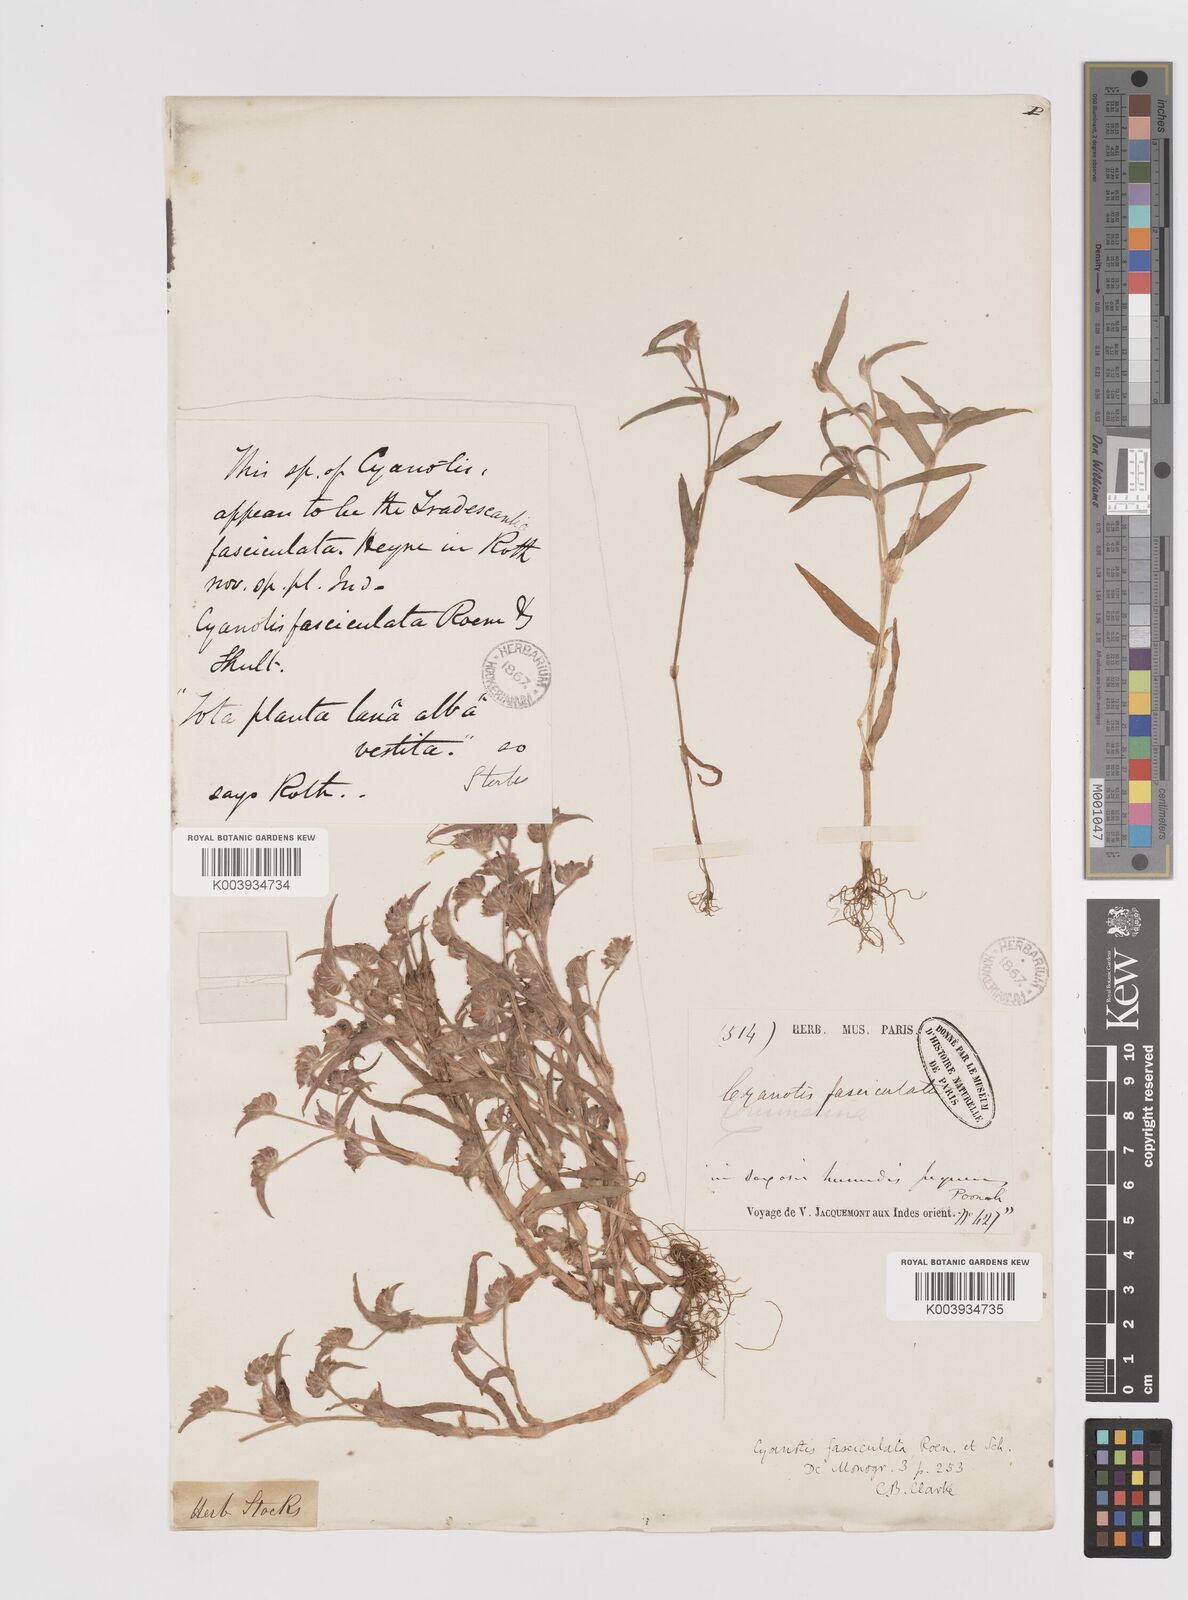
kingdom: Plantae
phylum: Tracheophyta
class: Liliopsida
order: Commelinales
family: Commelinaceae
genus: Cyanotis
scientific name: Cyanotis fasciculata
